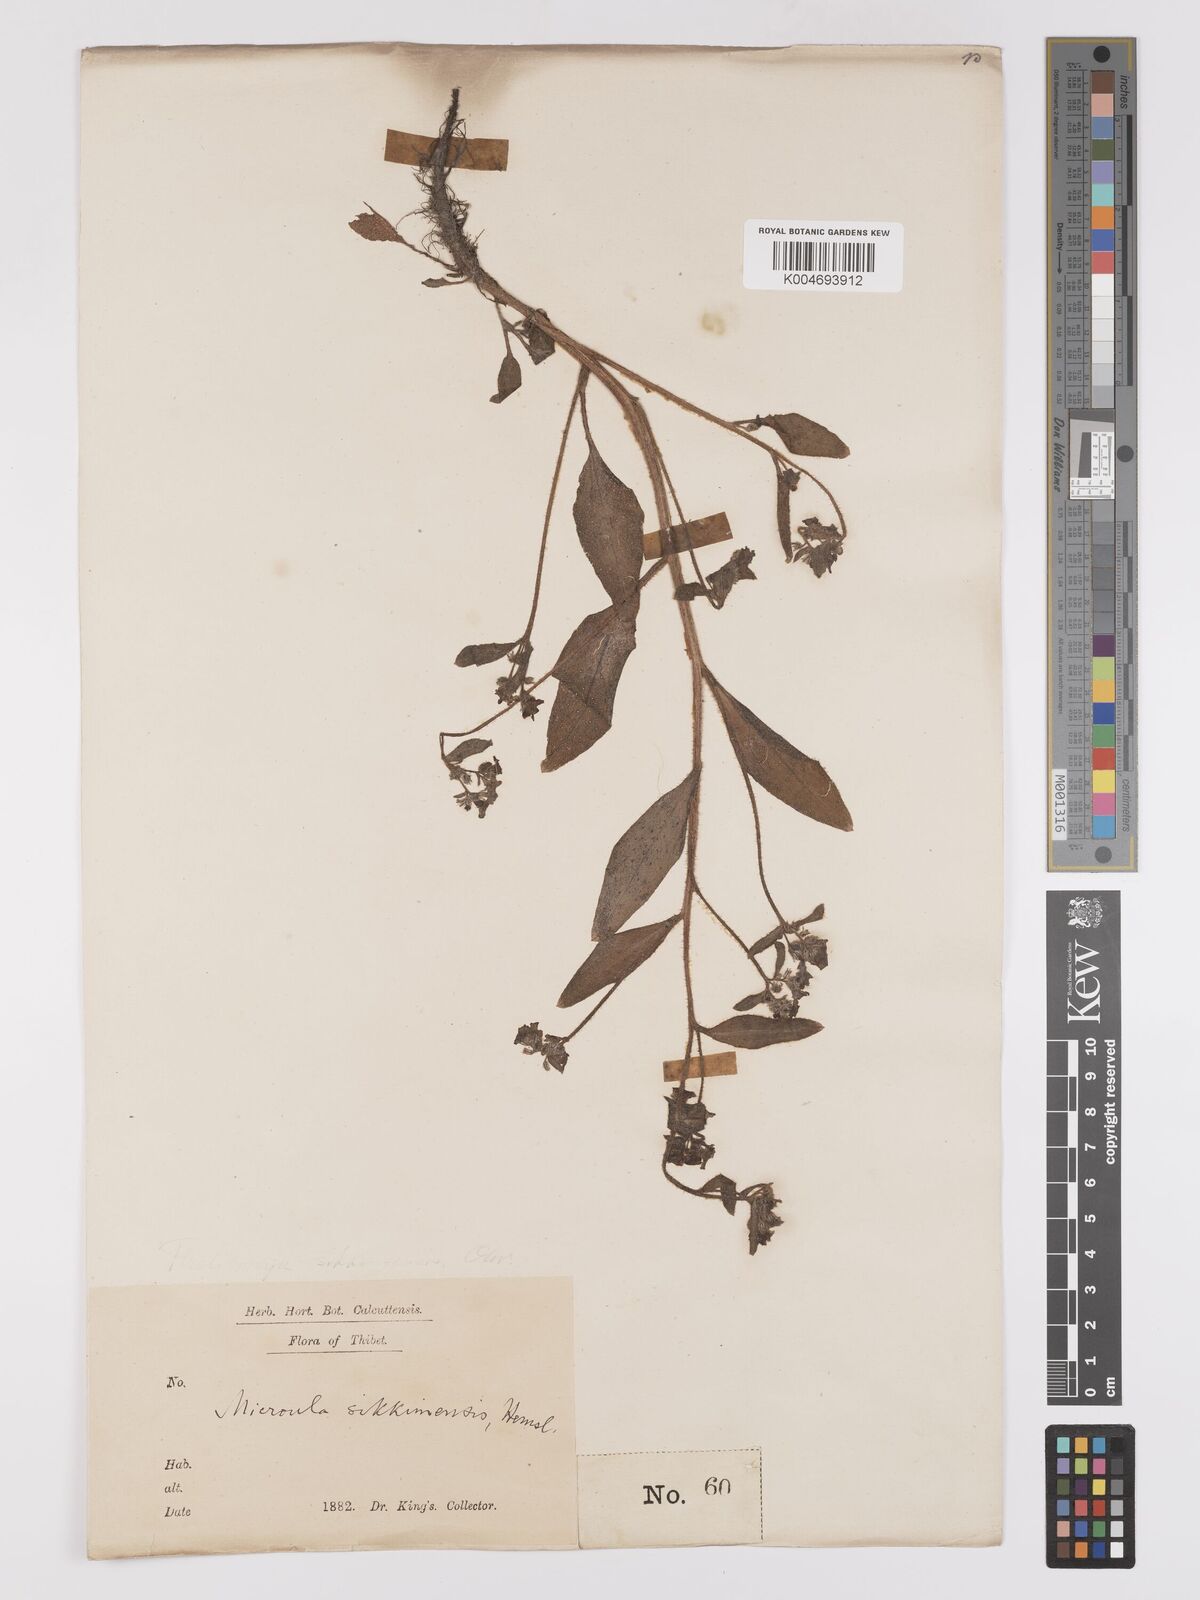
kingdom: Plantae
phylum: Tracheophyta
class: Magnoliopsida
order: Boraginales
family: Boraginaceae
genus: Microula
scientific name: Microula sikkimensis
